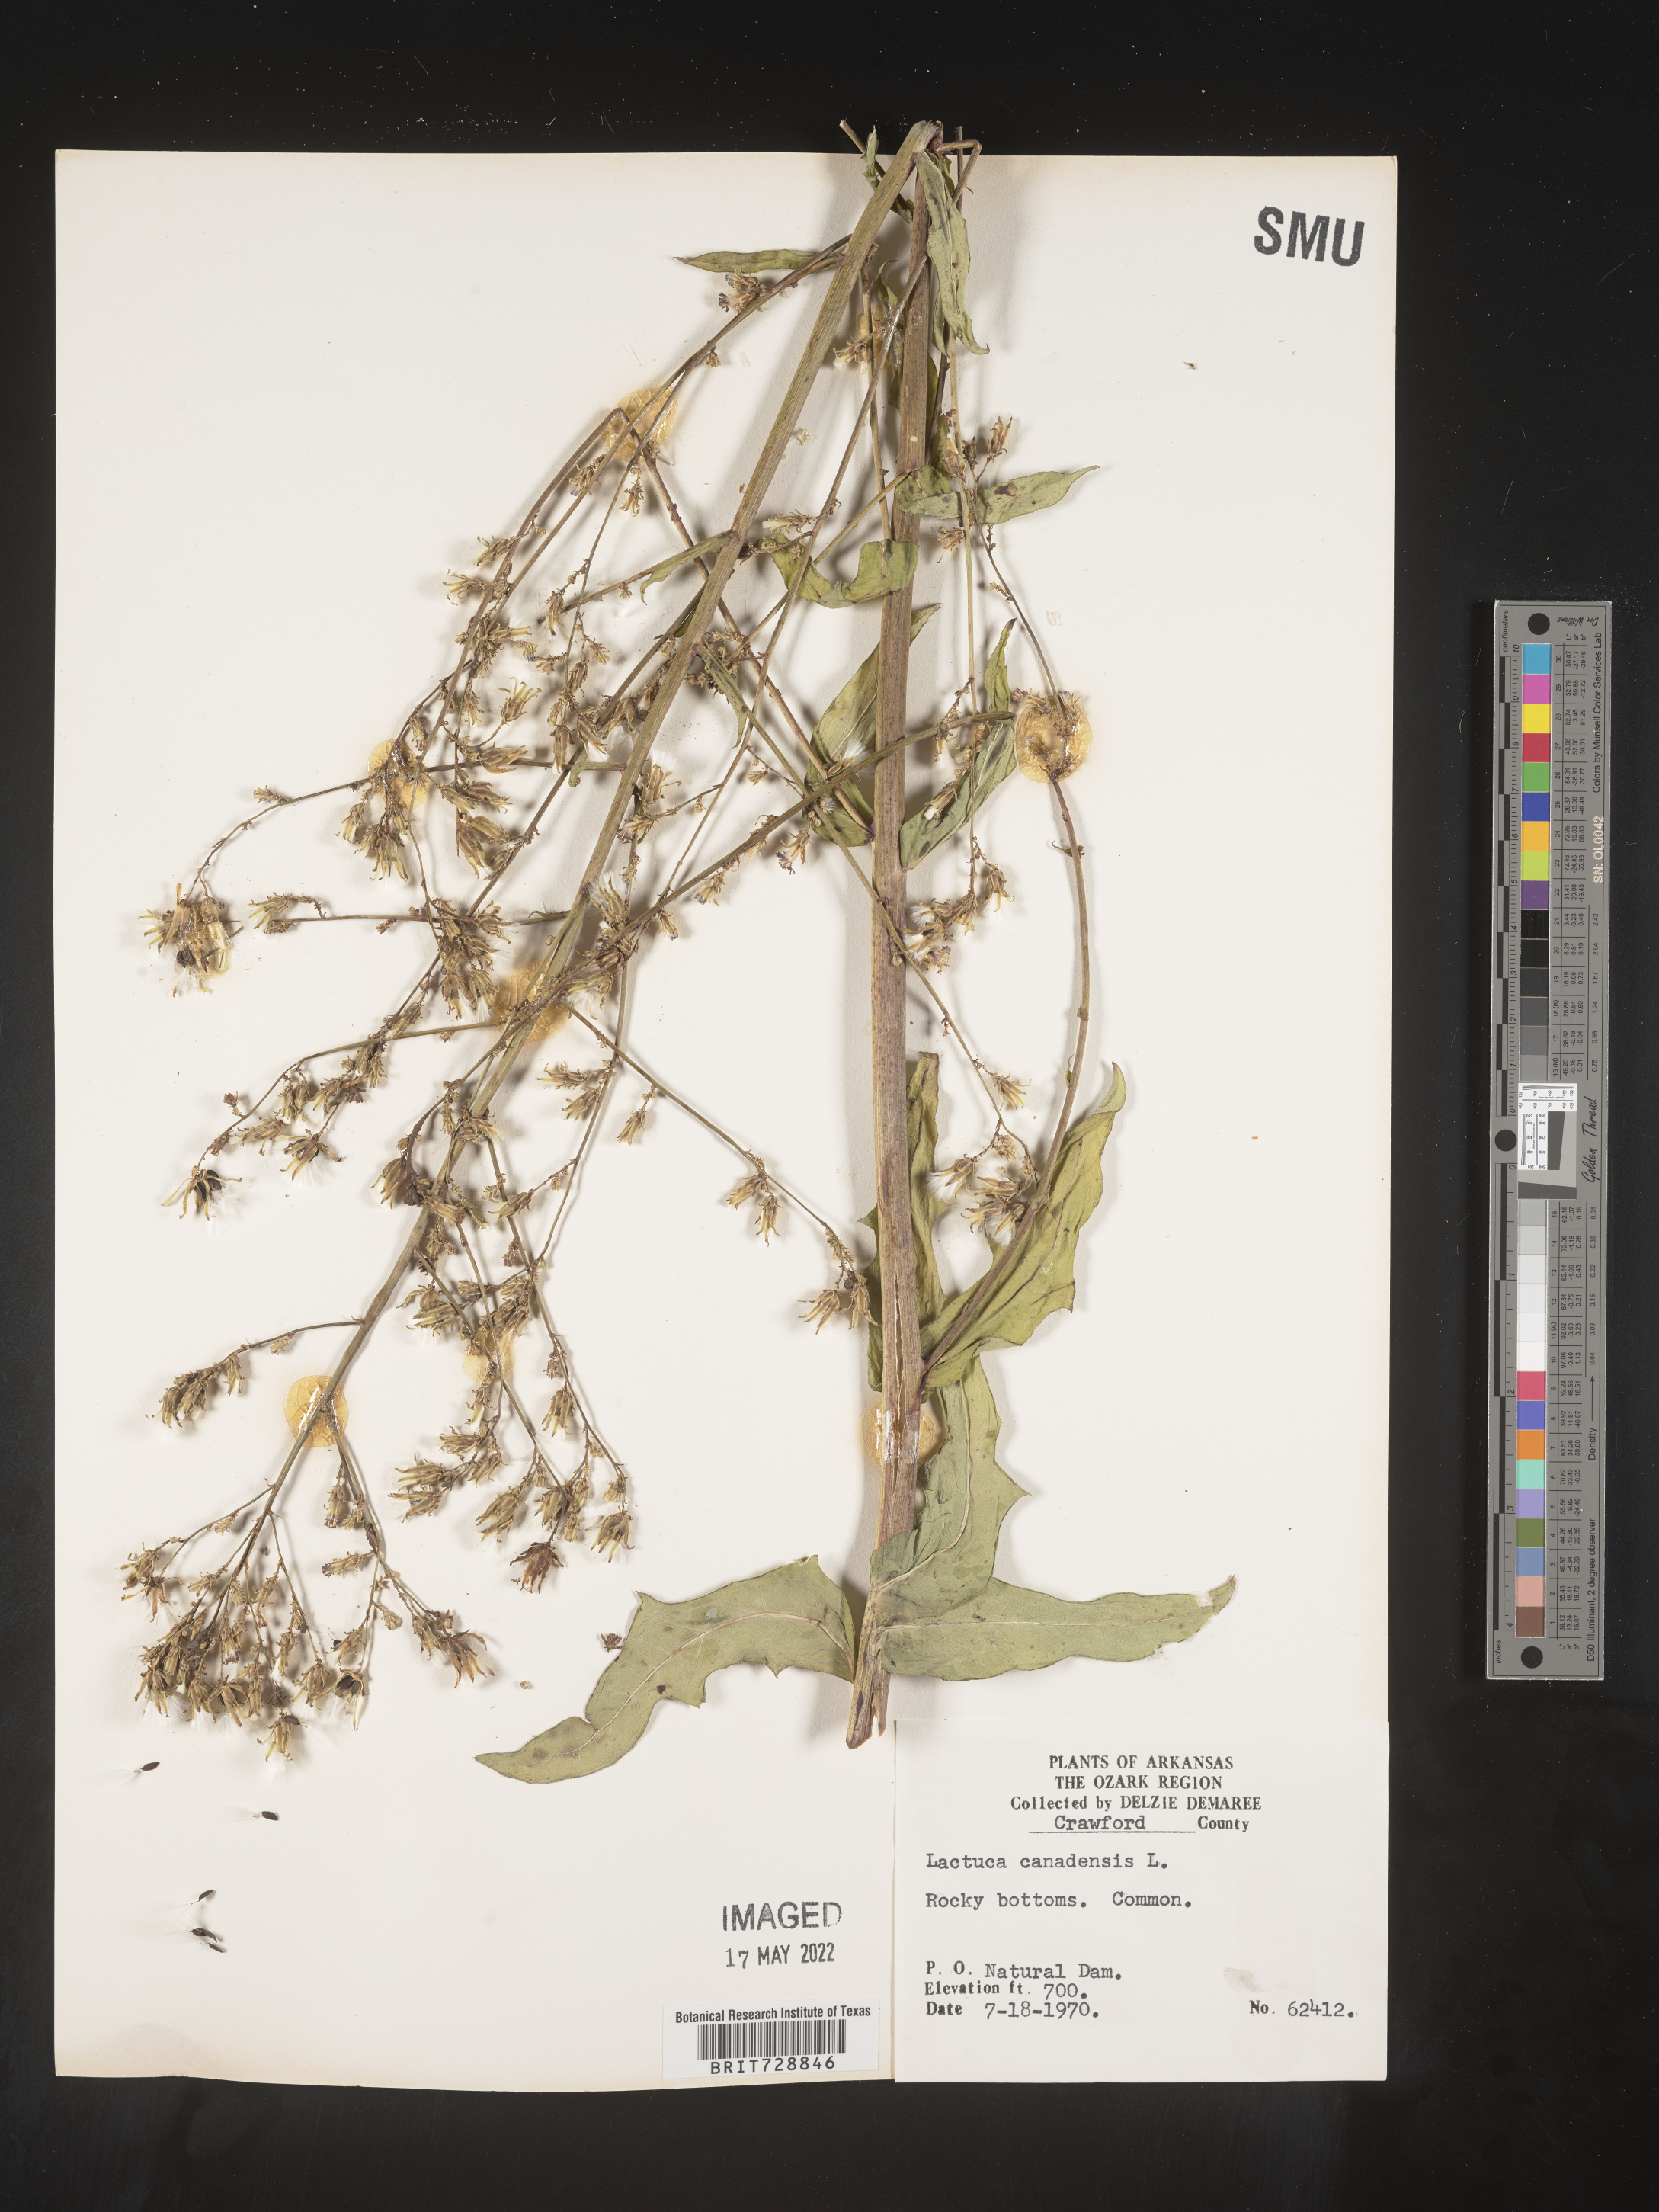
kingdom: Plantae
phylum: Tracheophyta
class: Magnoliopsida
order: Asterales
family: Asteraceae
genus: Lactuca
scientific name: Lactuca canadensis
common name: Canada lettuce
